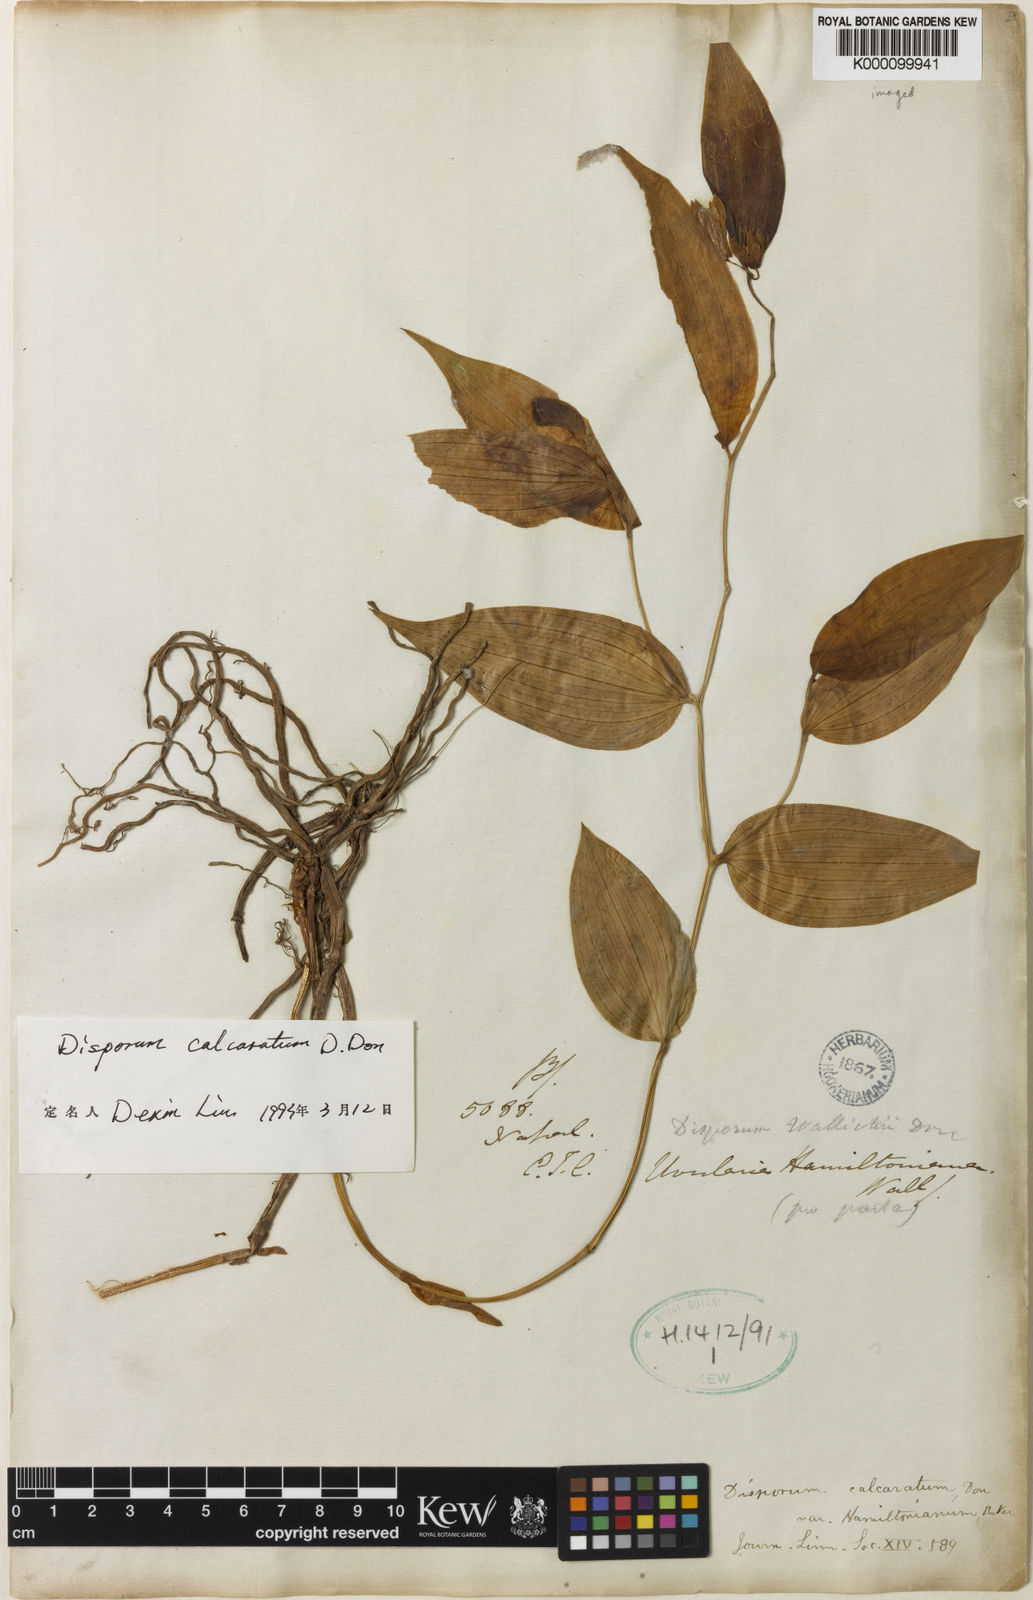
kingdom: Plantae
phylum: Tracheophyta
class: Liliopsida
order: Liliales
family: Colchicaceae
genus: Disporum
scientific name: Disporum calcaratum
